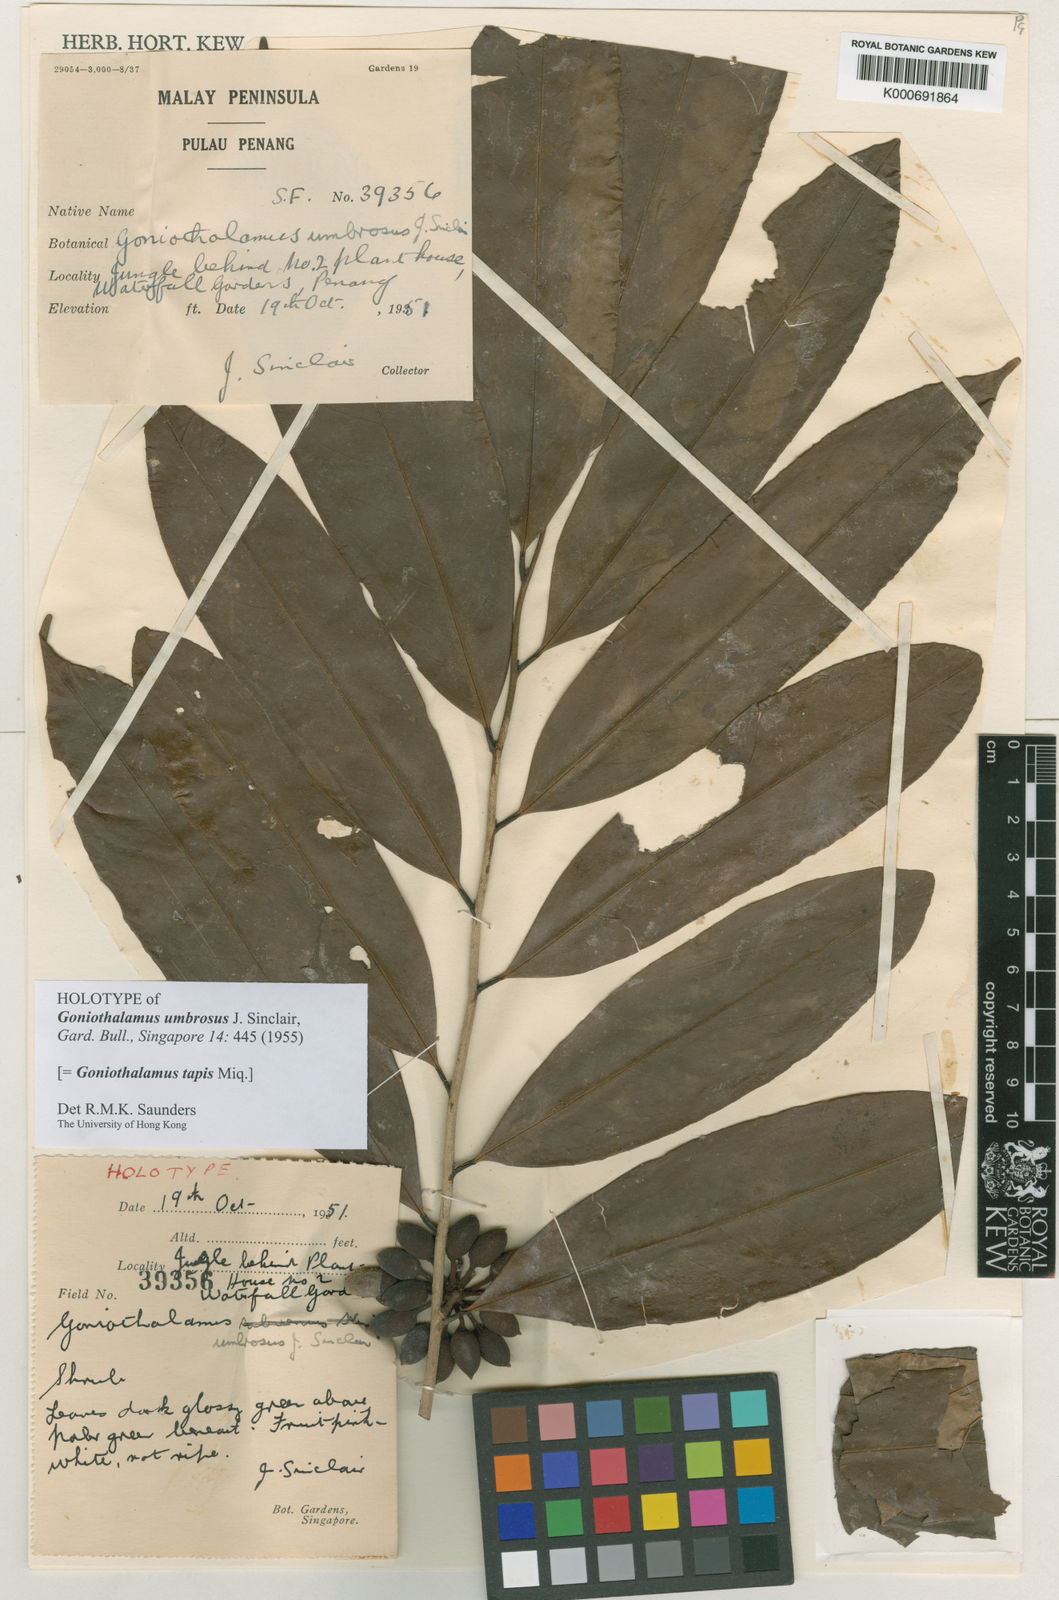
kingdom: Plantae
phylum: Tracheophyta
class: Magnoliopsida
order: Magnoliales
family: Annonaceae
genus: Goniothalamus
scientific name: Goniothalamus tapis
